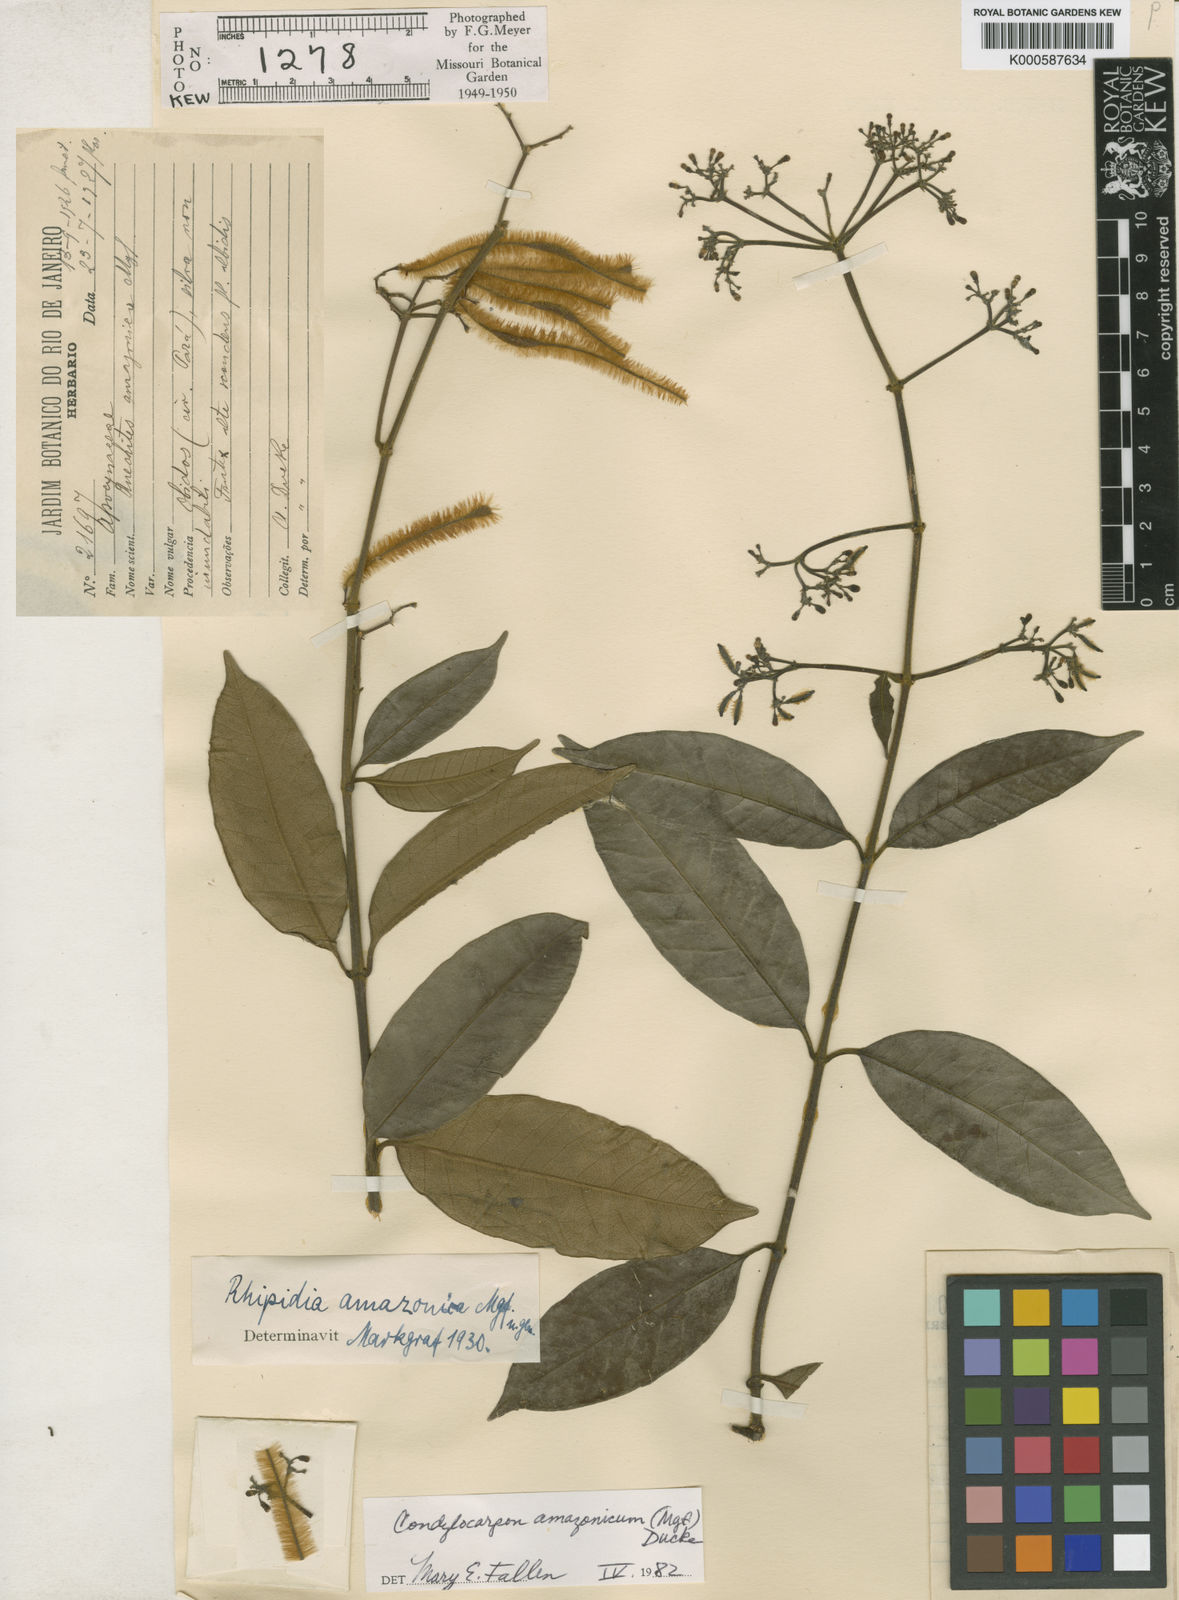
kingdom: Plantae
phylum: Tracheophyta
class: Magnoliopsida
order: Gentianales
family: Apocynaceae
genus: Condylocarpon
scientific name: Condylocarpon amazonicum
